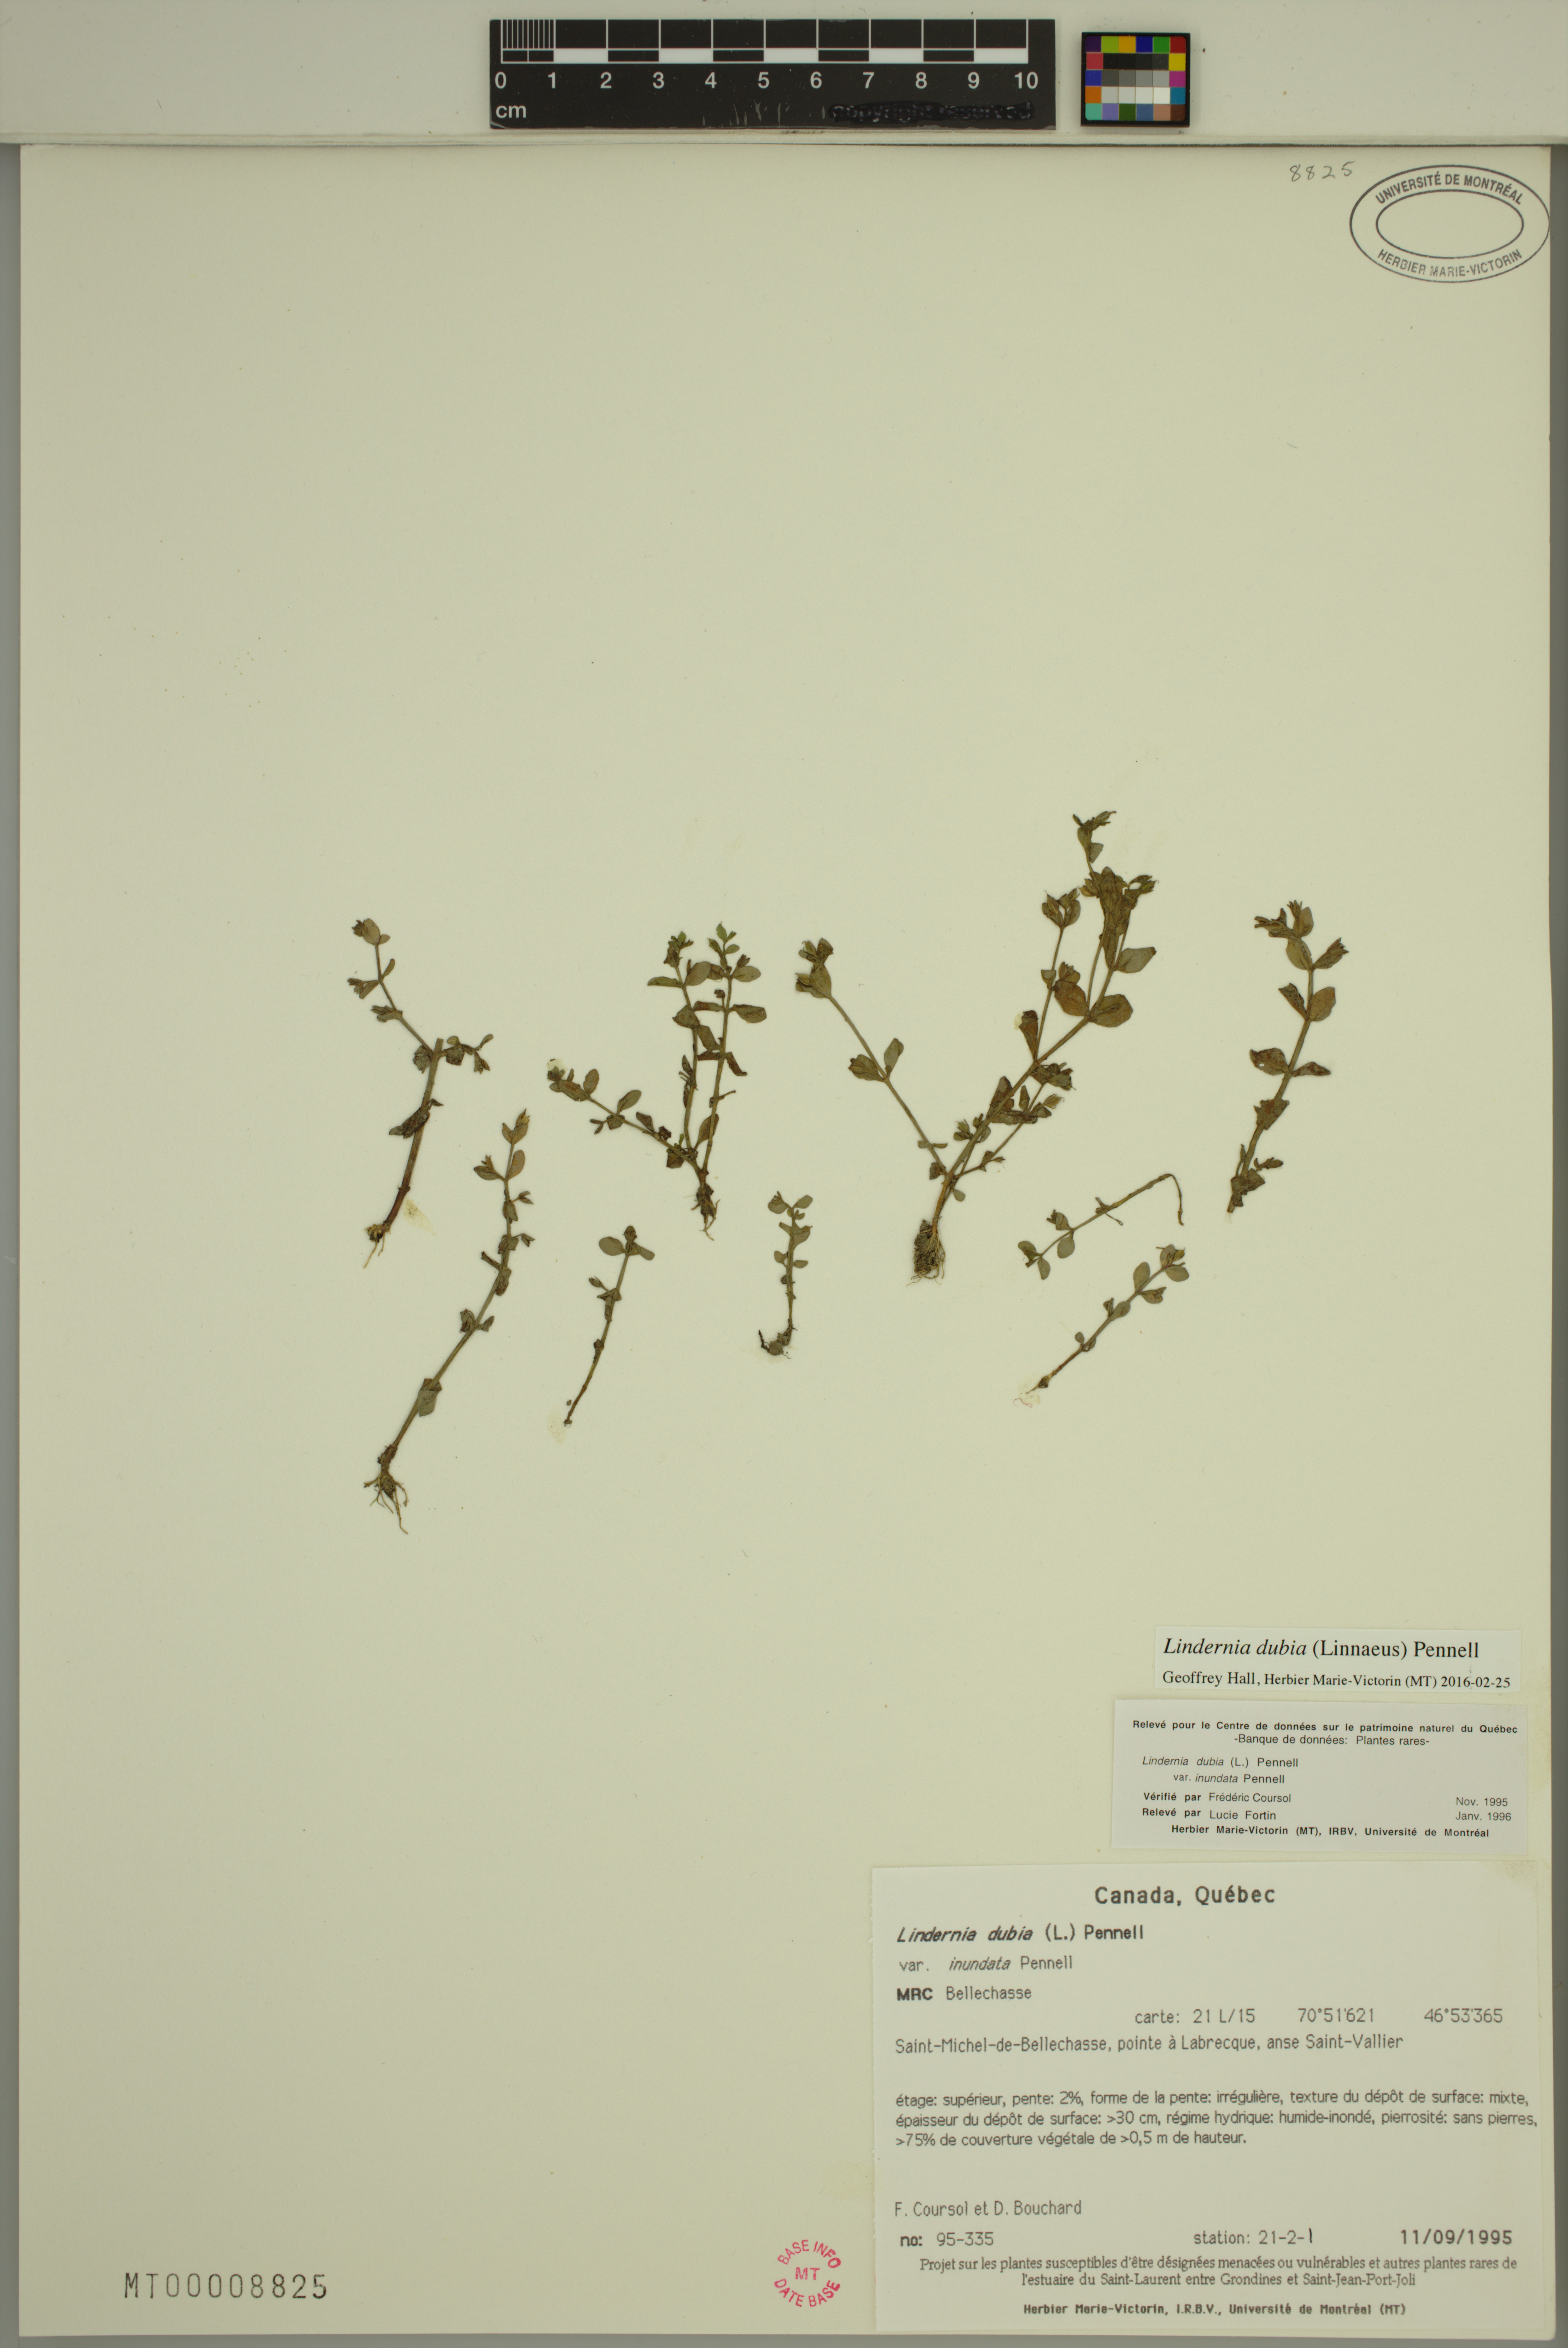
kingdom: Plantae
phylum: Tracheophyta
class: Magnoliopsida
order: Lamiales
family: Linderniaceae
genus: Lindernia
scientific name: Lindernia dubia
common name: Annual false pimpernel
